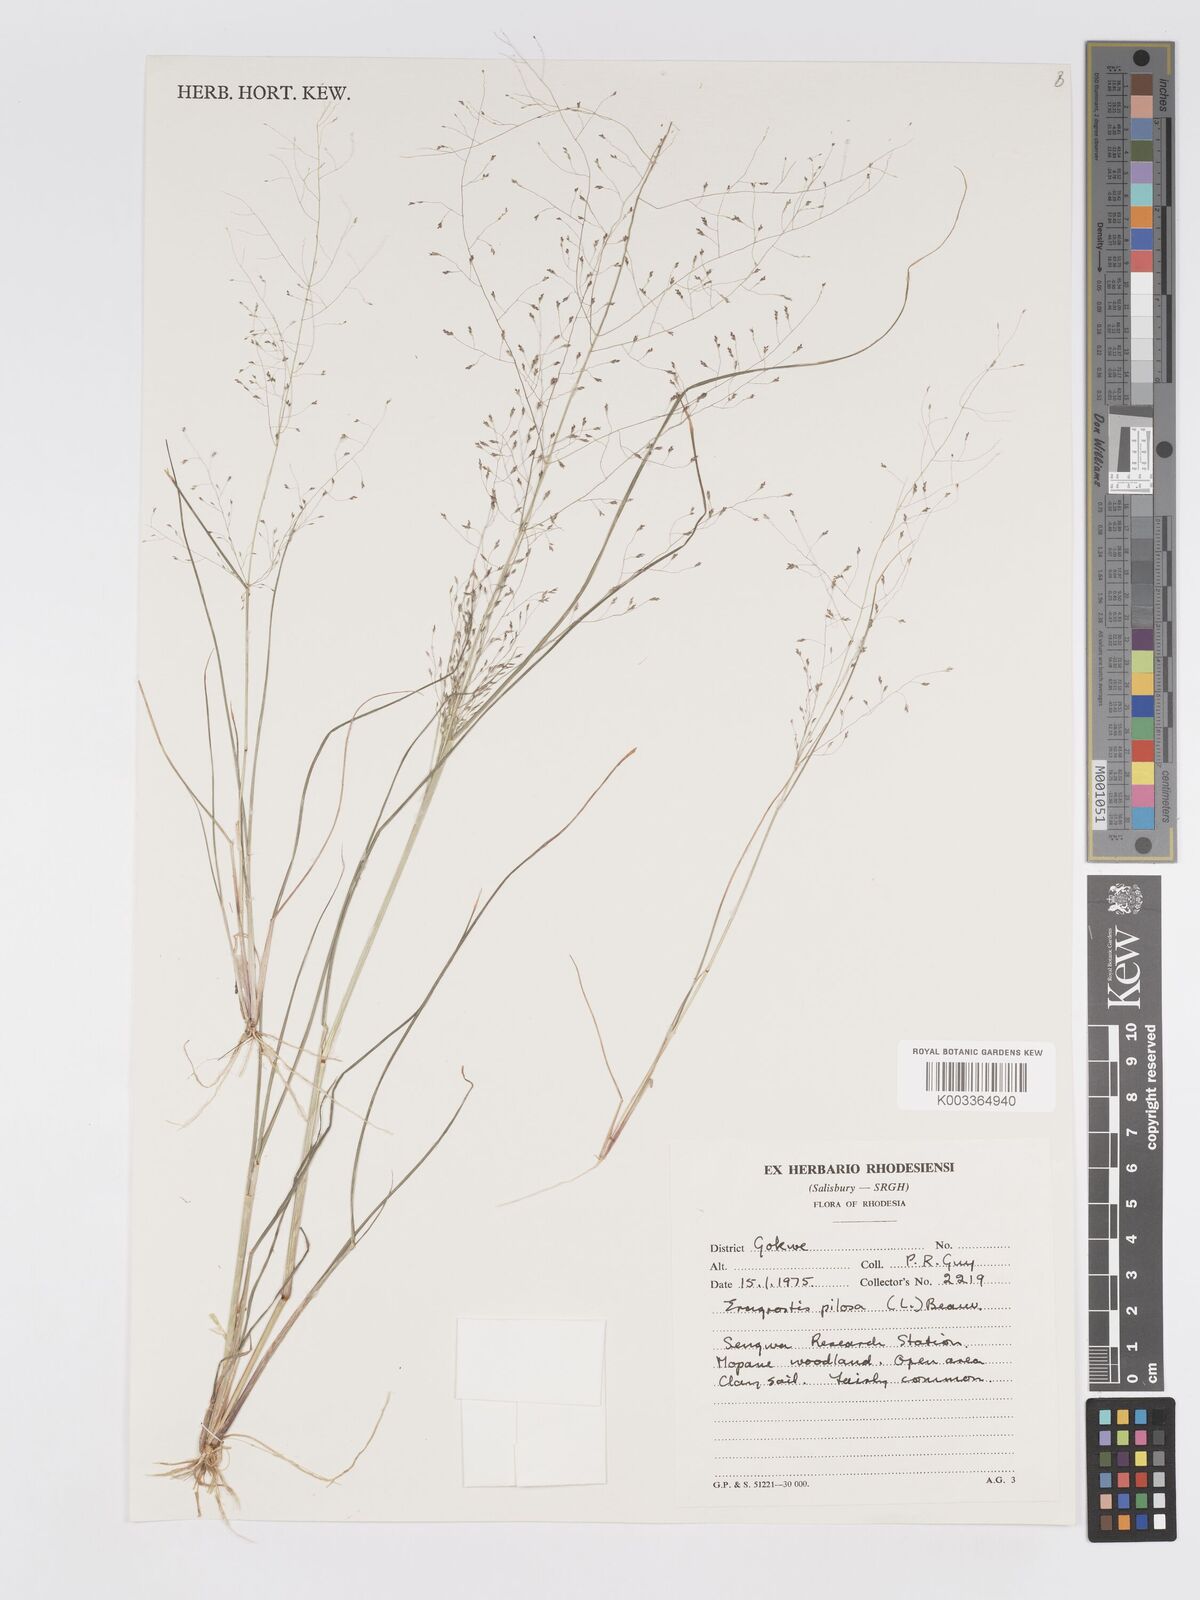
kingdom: Plantae
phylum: Tracheophyta
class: Liliopsida
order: Poales
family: Poaceae
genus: Eragrostis
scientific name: Eragrostis pilosa
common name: Indian lovegrass
